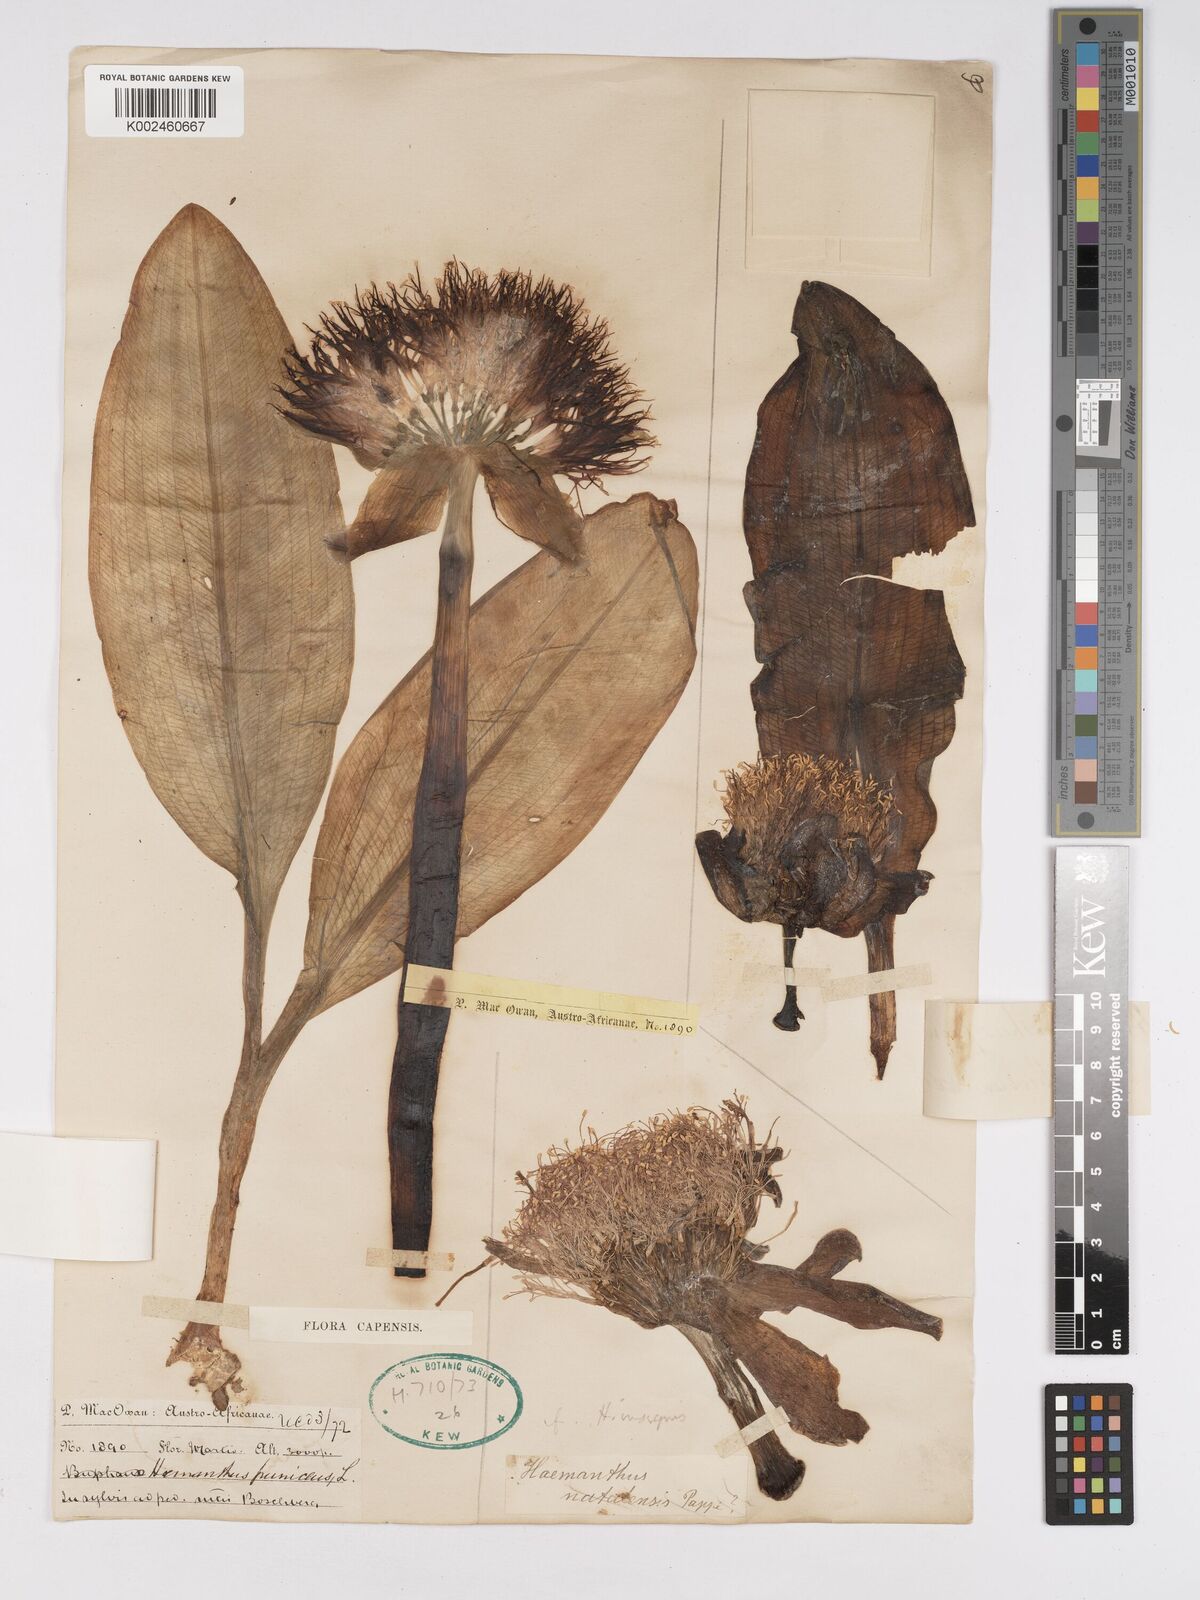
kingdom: Plantae
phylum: Tracheophyta
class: Liliopsida
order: Asparagales
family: Amaryllidaceae
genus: Scadoxus
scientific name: Scadoxus puniceus
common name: Royal-paintbrush
